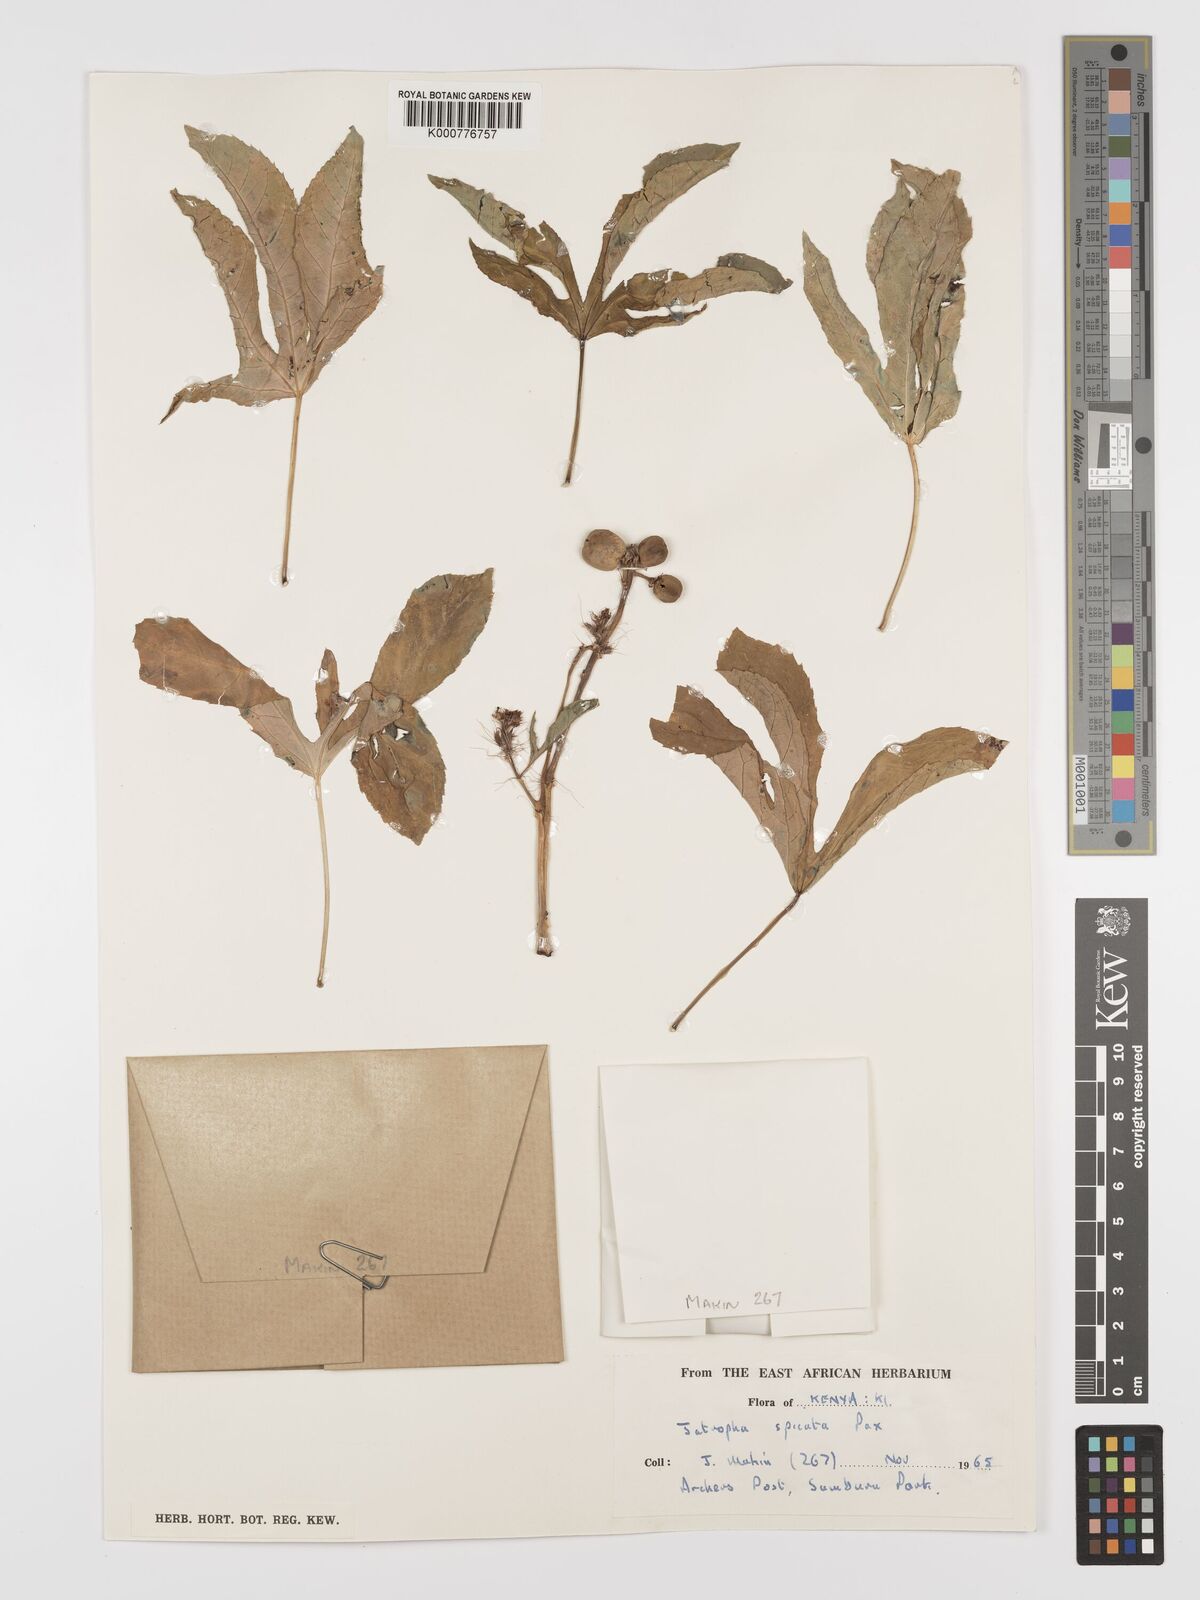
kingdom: Plantae
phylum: Tracheophyta
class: Magnoliopsida
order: Malpighiales
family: Euphorbiaceae
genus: Jatropha
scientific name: Jatropha spicata
